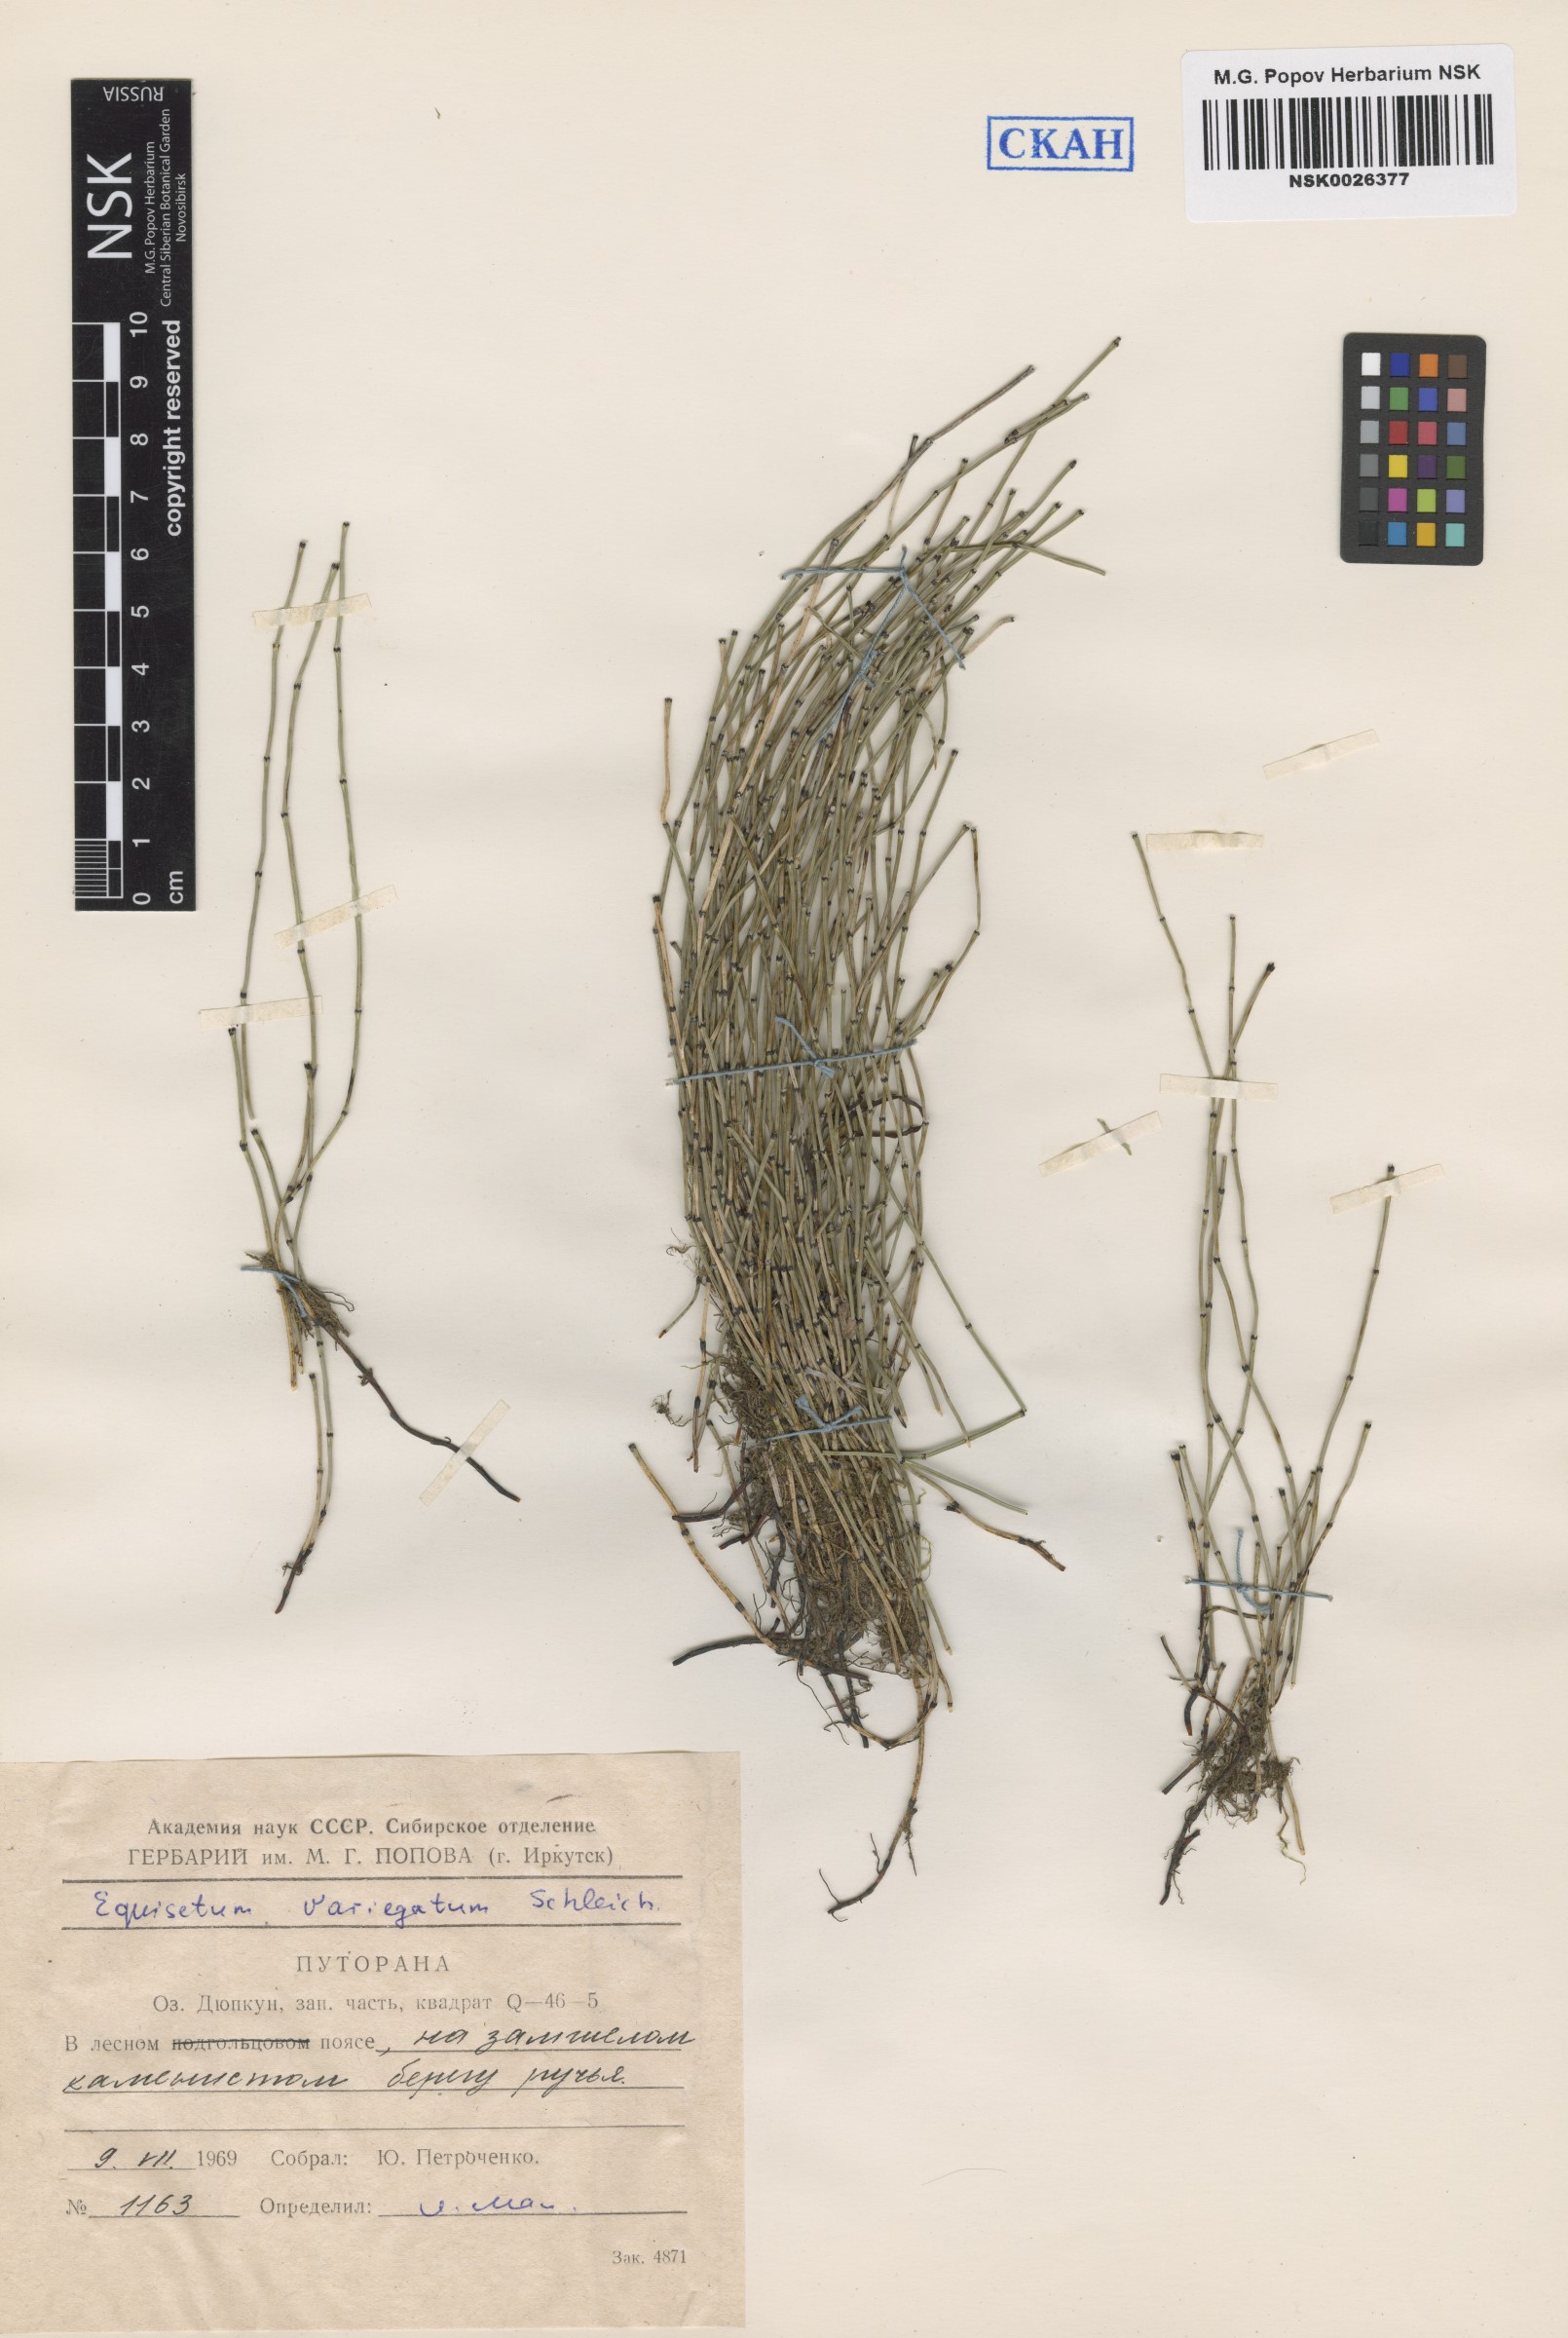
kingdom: Plantae
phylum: Tracheophyta
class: Polypodiopsida
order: Equisetales
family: Equisetaceae
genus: Equisetum
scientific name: Equisetum variegatum
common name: Variegated horsetail
